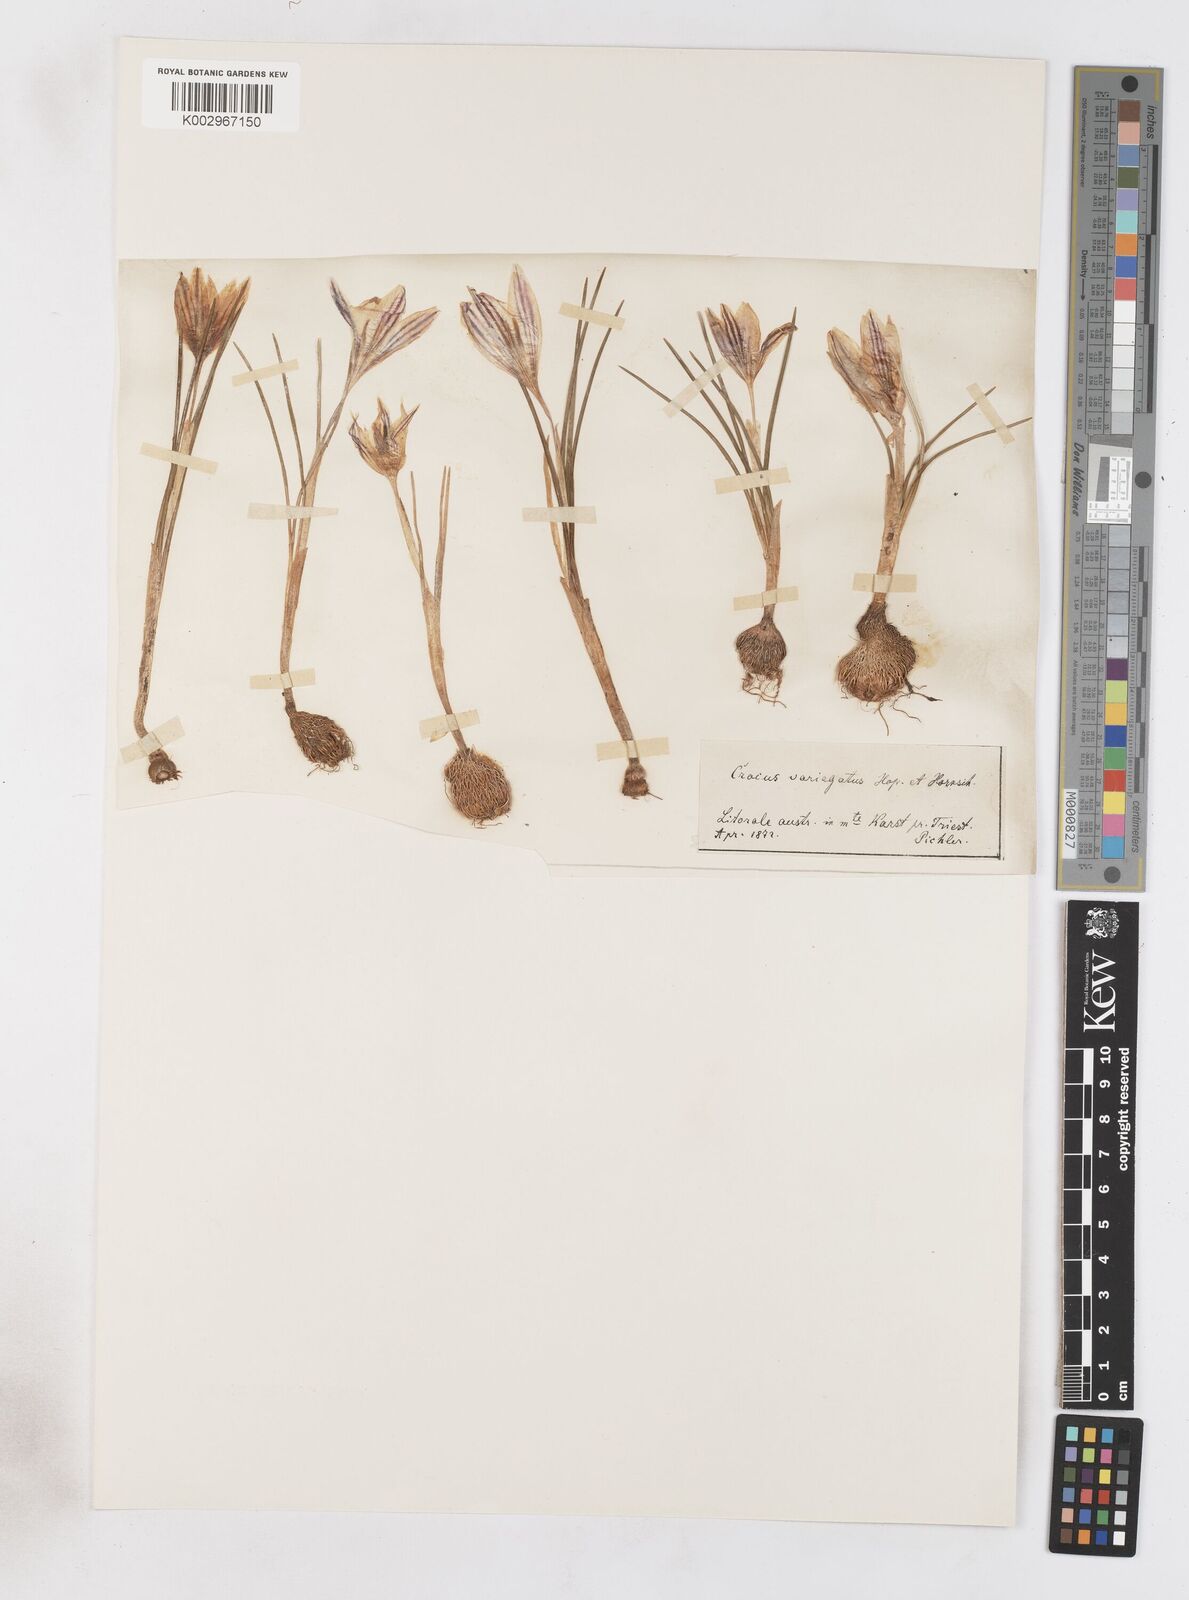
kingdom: Plantae
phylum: Tracheophyta
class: Liliopsida
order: Asparagales
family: Iridaceae
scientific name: Iridaceae
